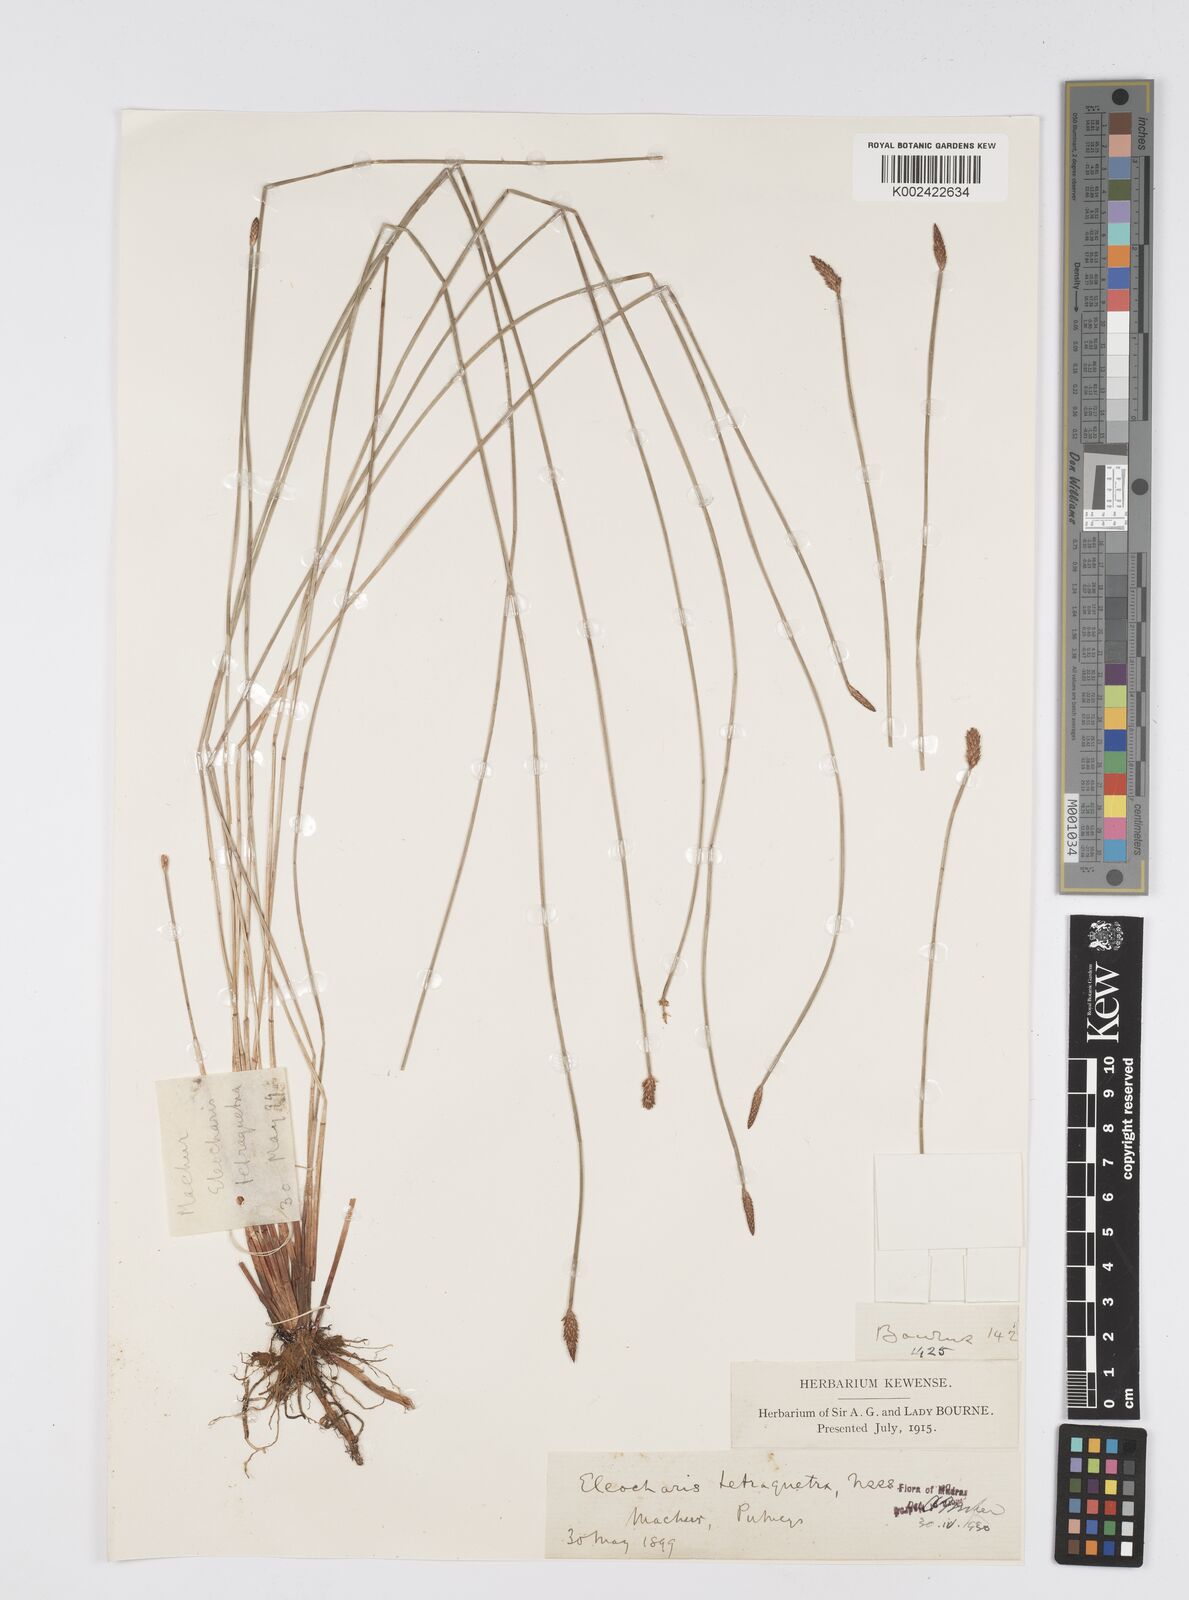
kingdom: Plantae
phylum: Tracheophyta
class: Liliopsida
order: Poales
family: Cyperaceae
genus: Eleocharis
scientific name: Eleocharis tetraquetra
